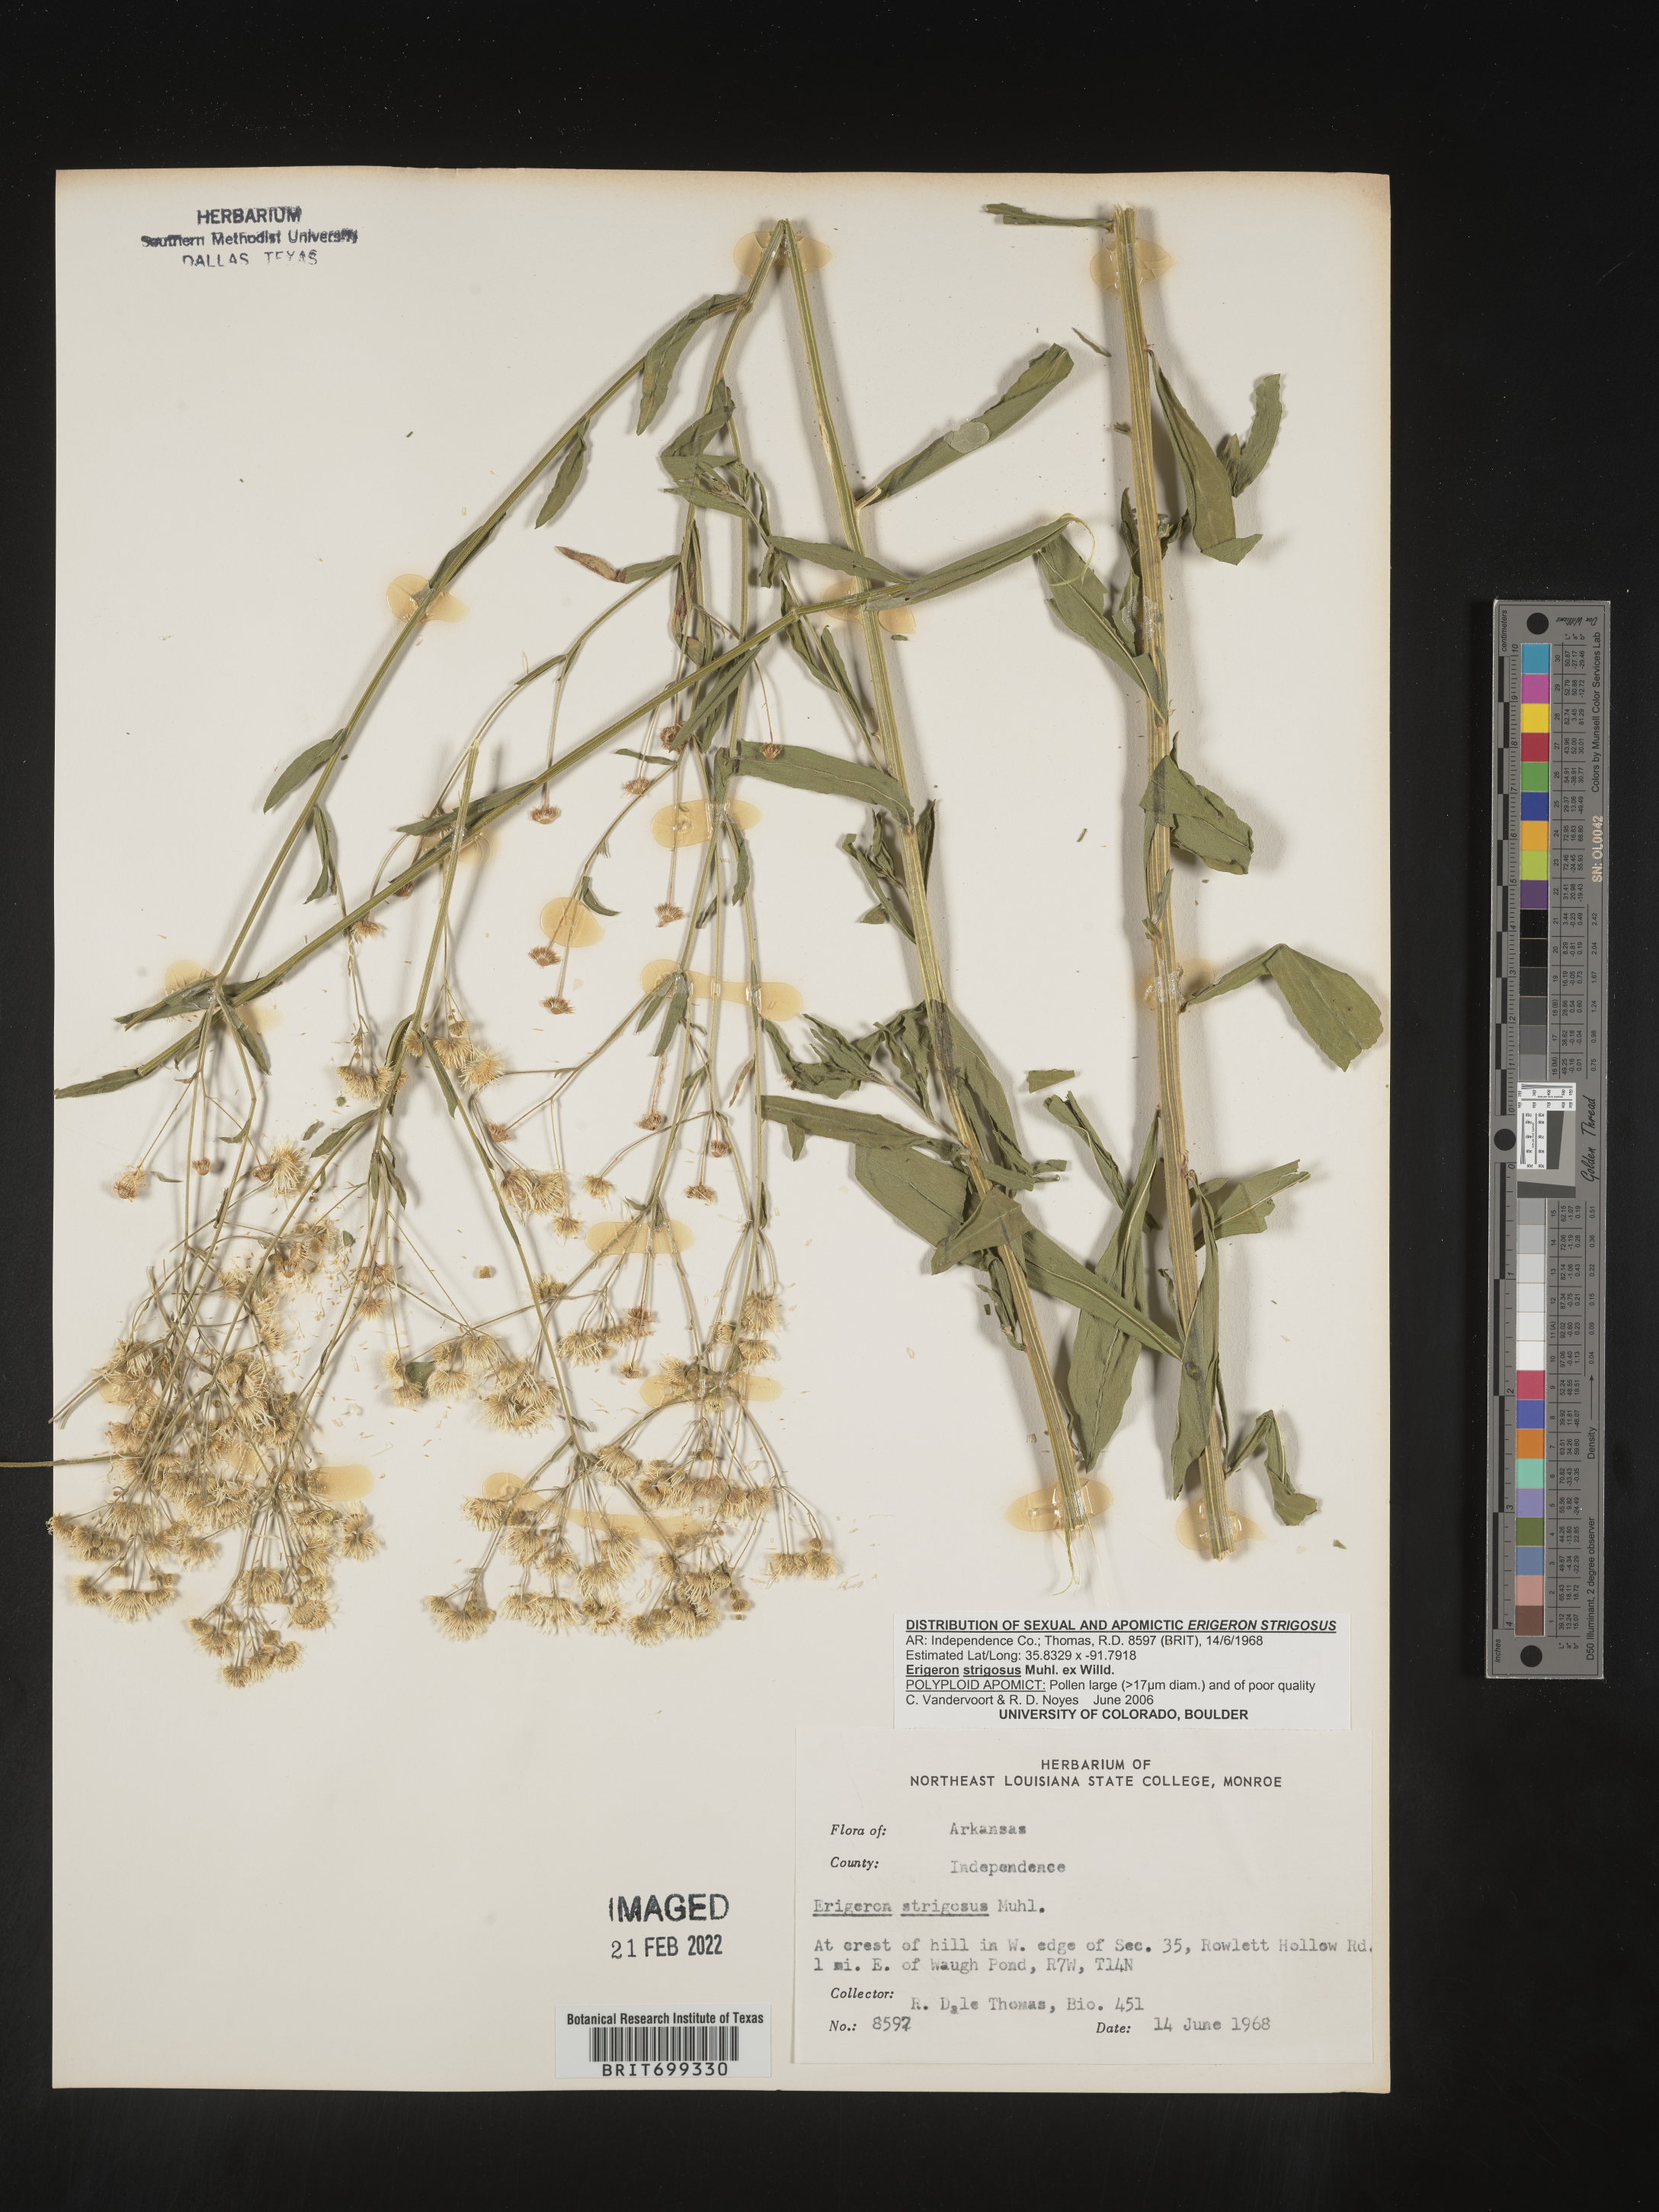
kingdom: Plantae
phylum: Tracheophyta
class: Magnoliopsida
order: Asterales
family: Asteraceae
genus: Erigeron
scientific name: Erigeron strigosus
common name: Common eastern fleabane
